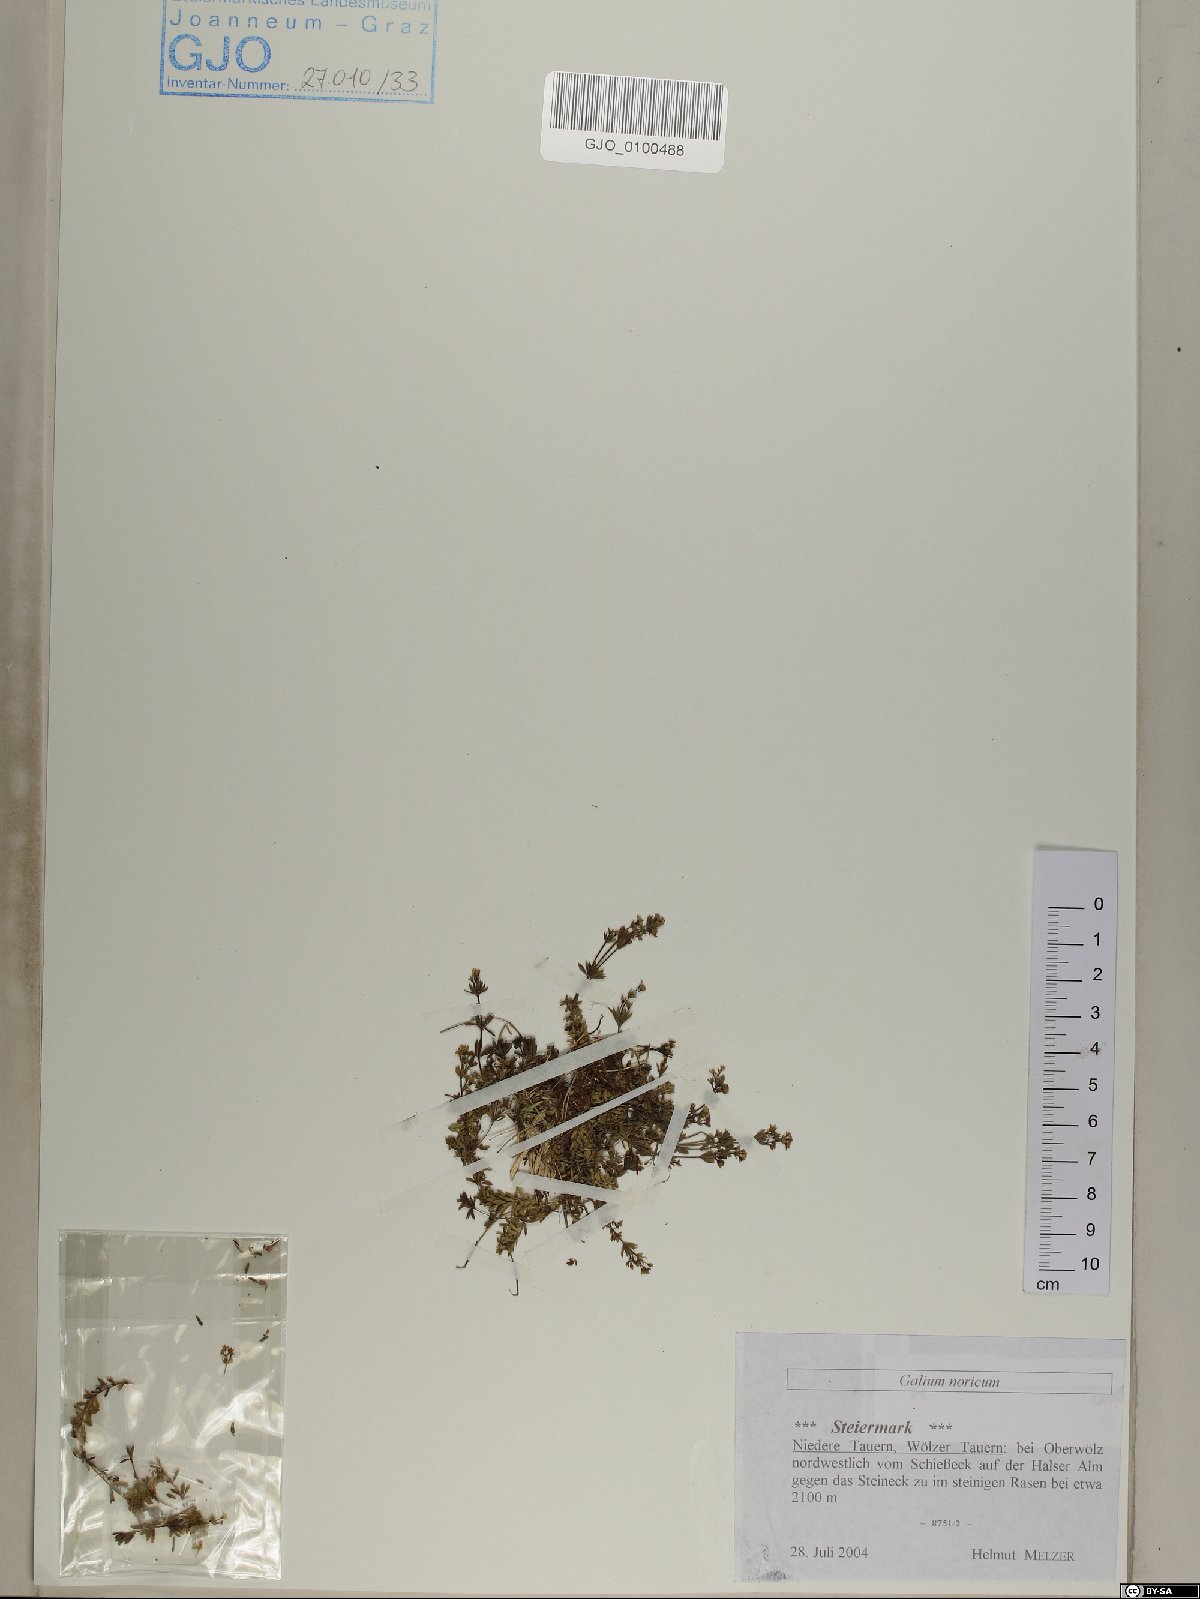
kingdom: Plantae
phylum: Tracheophyta
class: Magnoliopsida
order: Gentianales
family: Rubiaceae
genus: Galium
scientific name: Galium noricum
